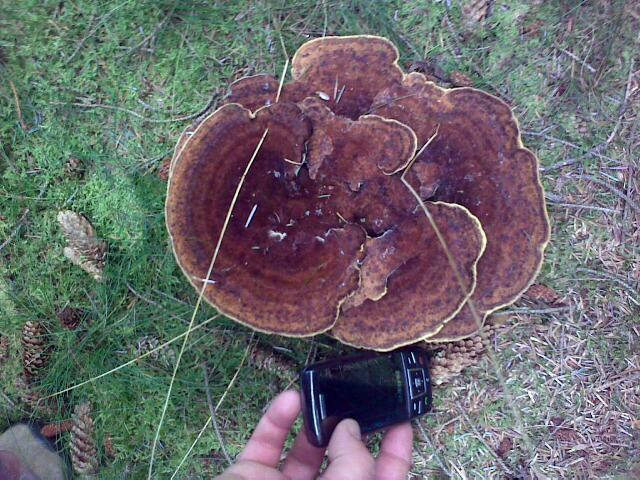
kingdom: Fungi
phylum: Basidiomycota
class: Agaricomycetes
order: Polyporales
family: Laetiporaceae
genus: Phaeolus
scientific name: Phaeolus schweinitzii
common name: brunporesvamp
